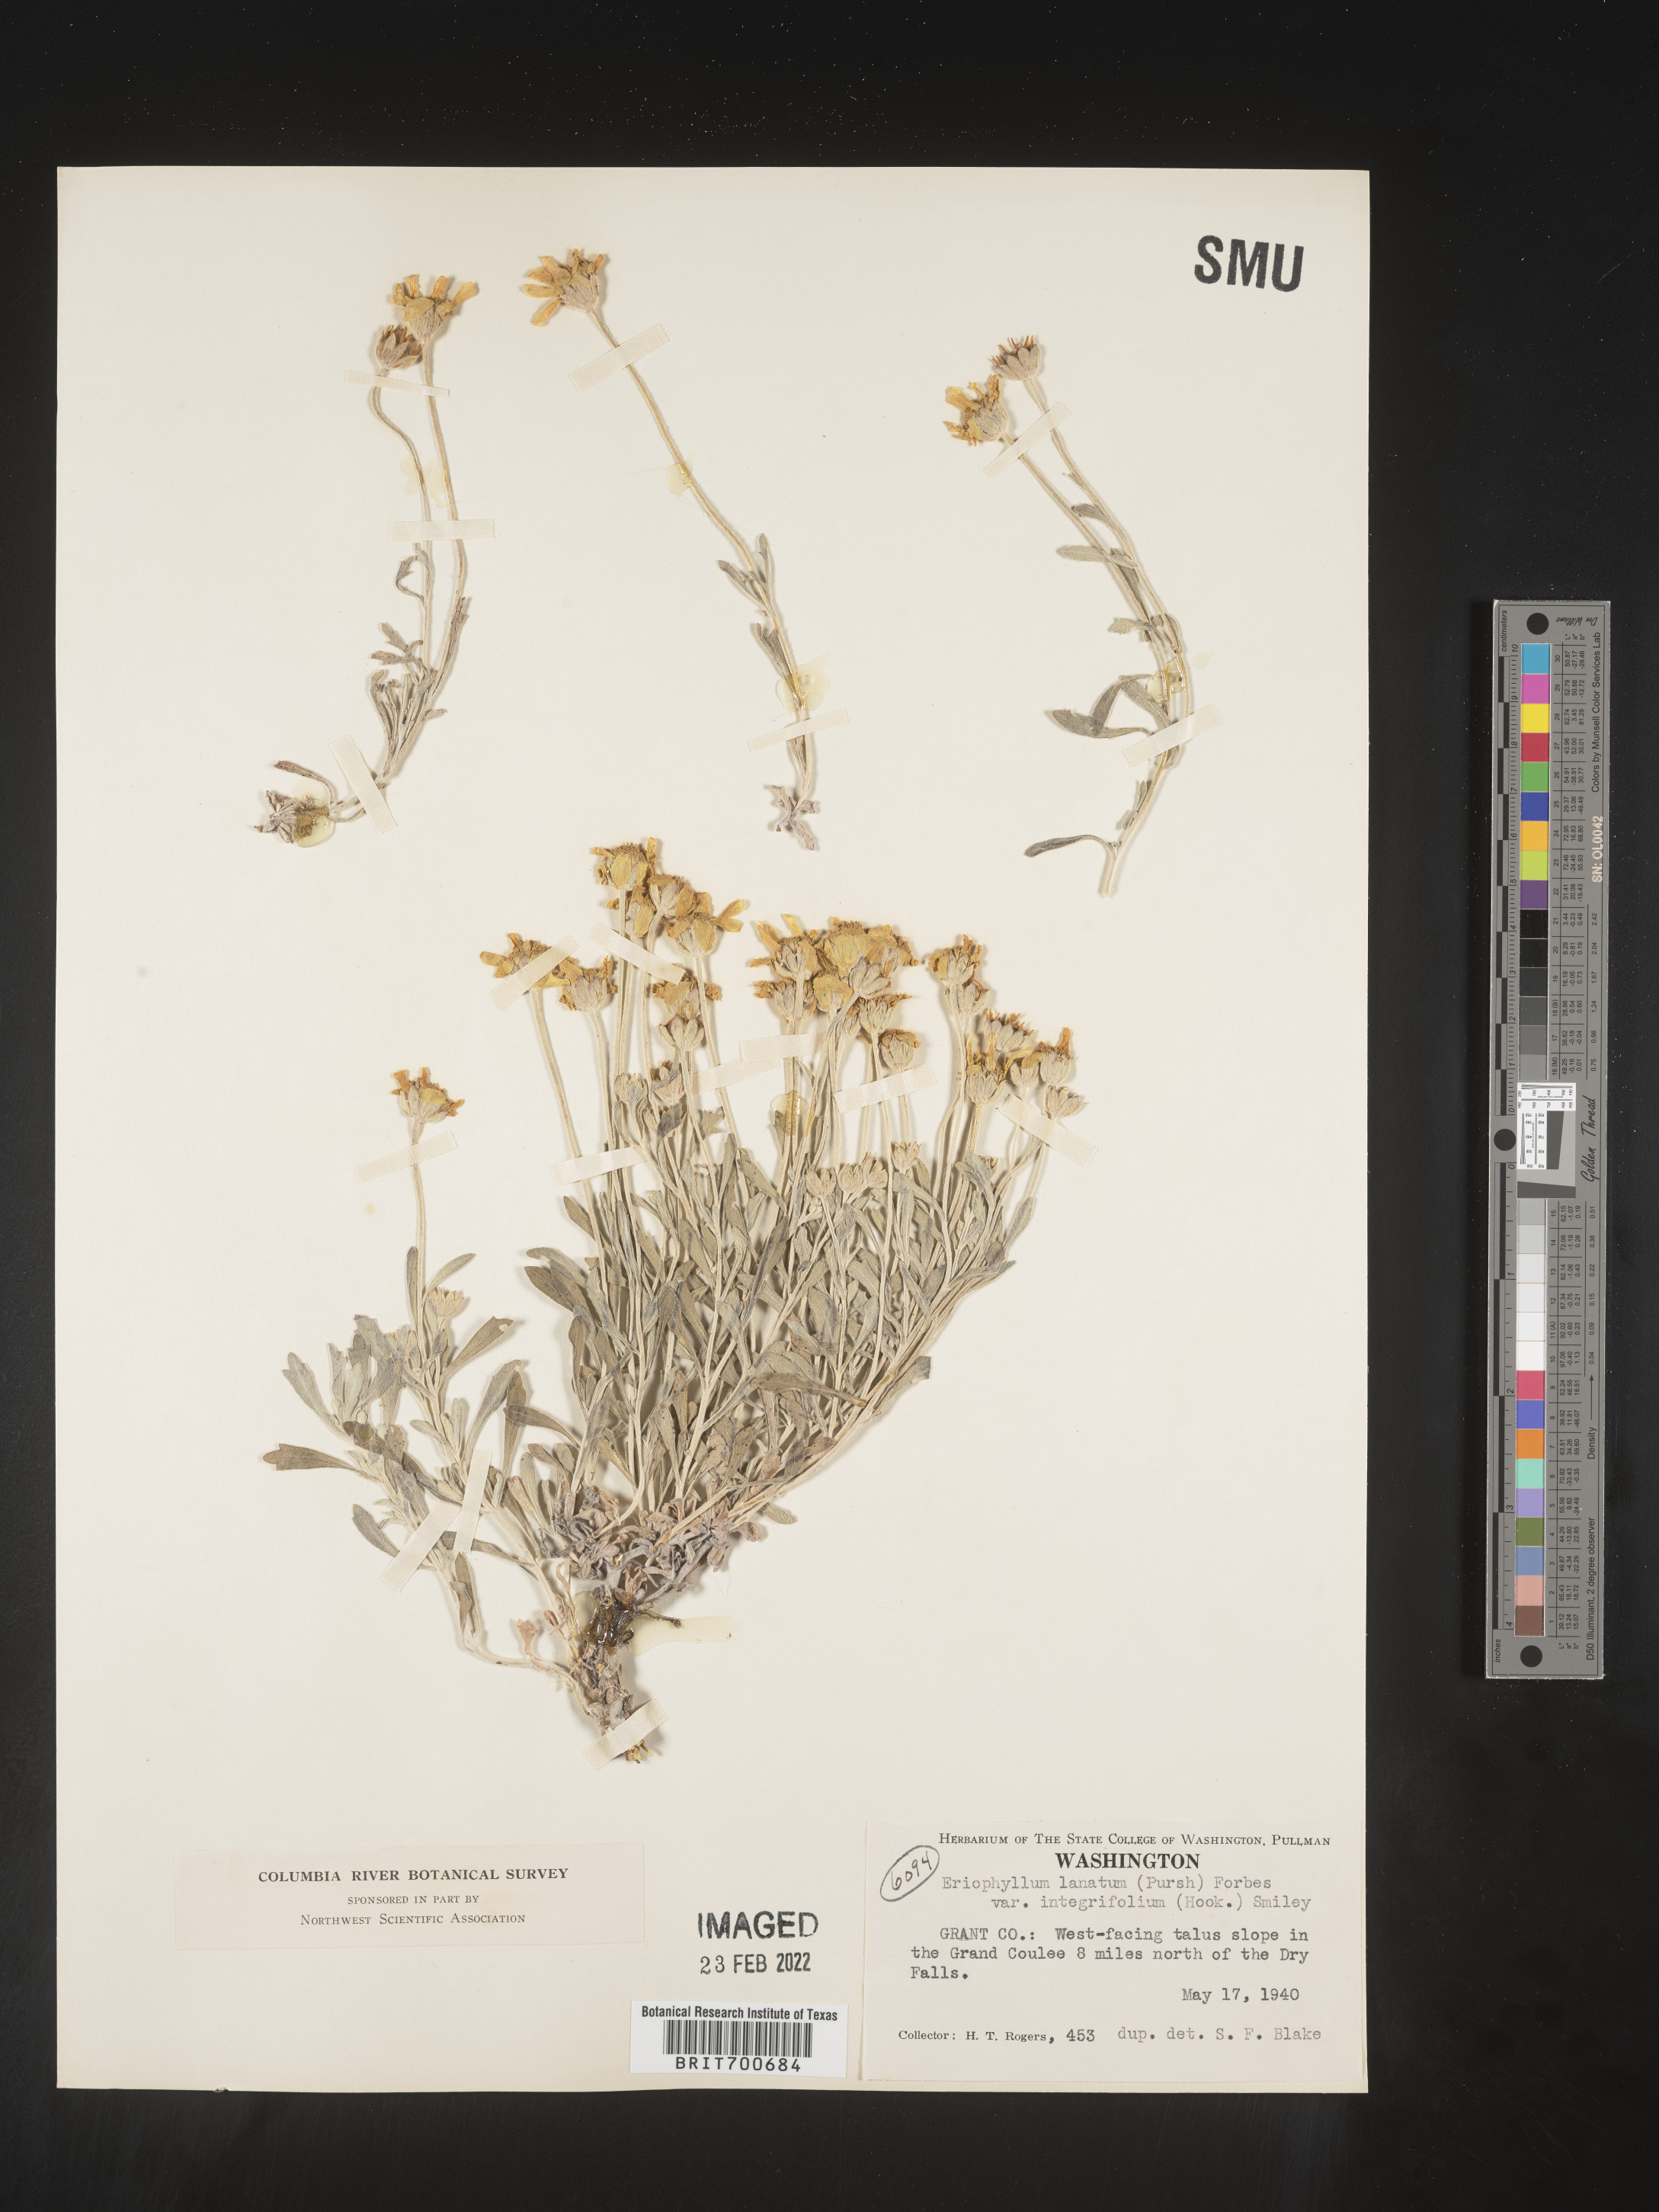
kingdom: Plantae
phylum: Tracheophyta
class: Magnoliopsida
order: Asterales
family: Asteraceae
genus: Eriophyllum
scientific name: Eriophyllum lanatum
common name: Common woolly-sunflower
